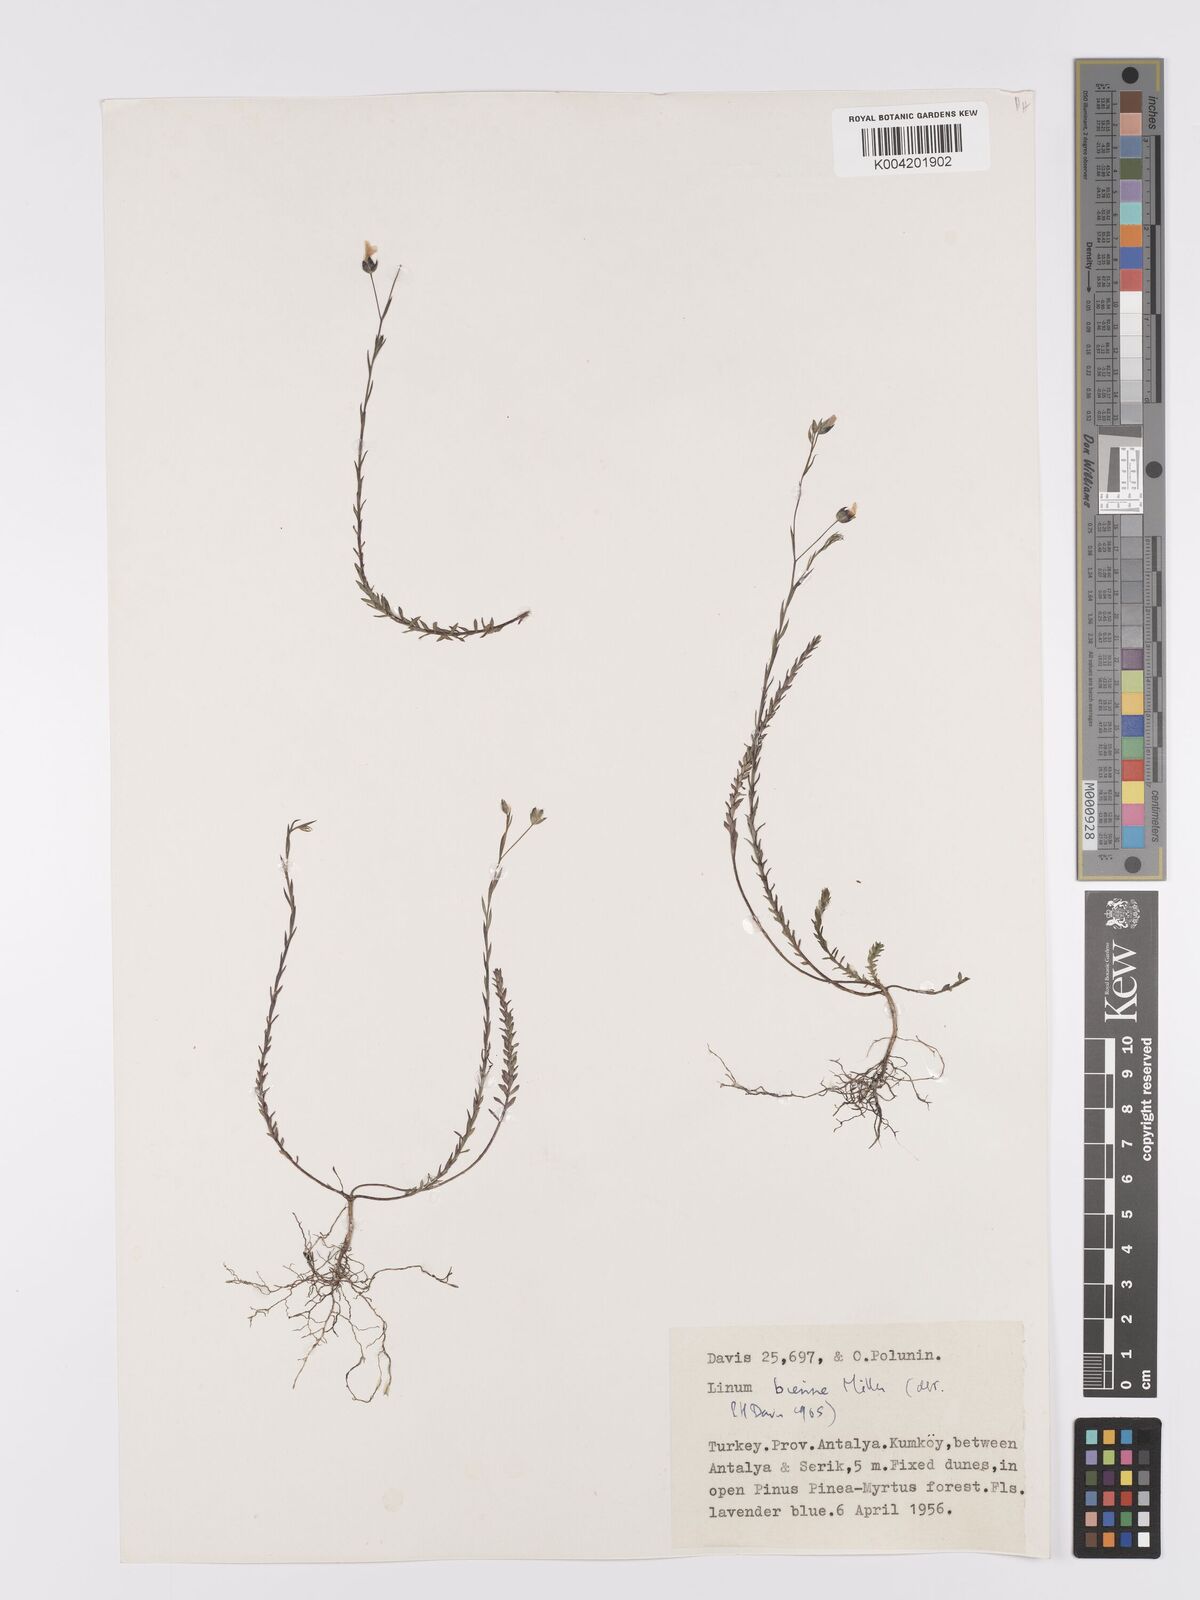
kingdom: Plantae
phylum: Tracheophyta
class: Magnoliopsida
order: Malpighiales
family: Linaceae
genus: Linum
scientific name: Linum
